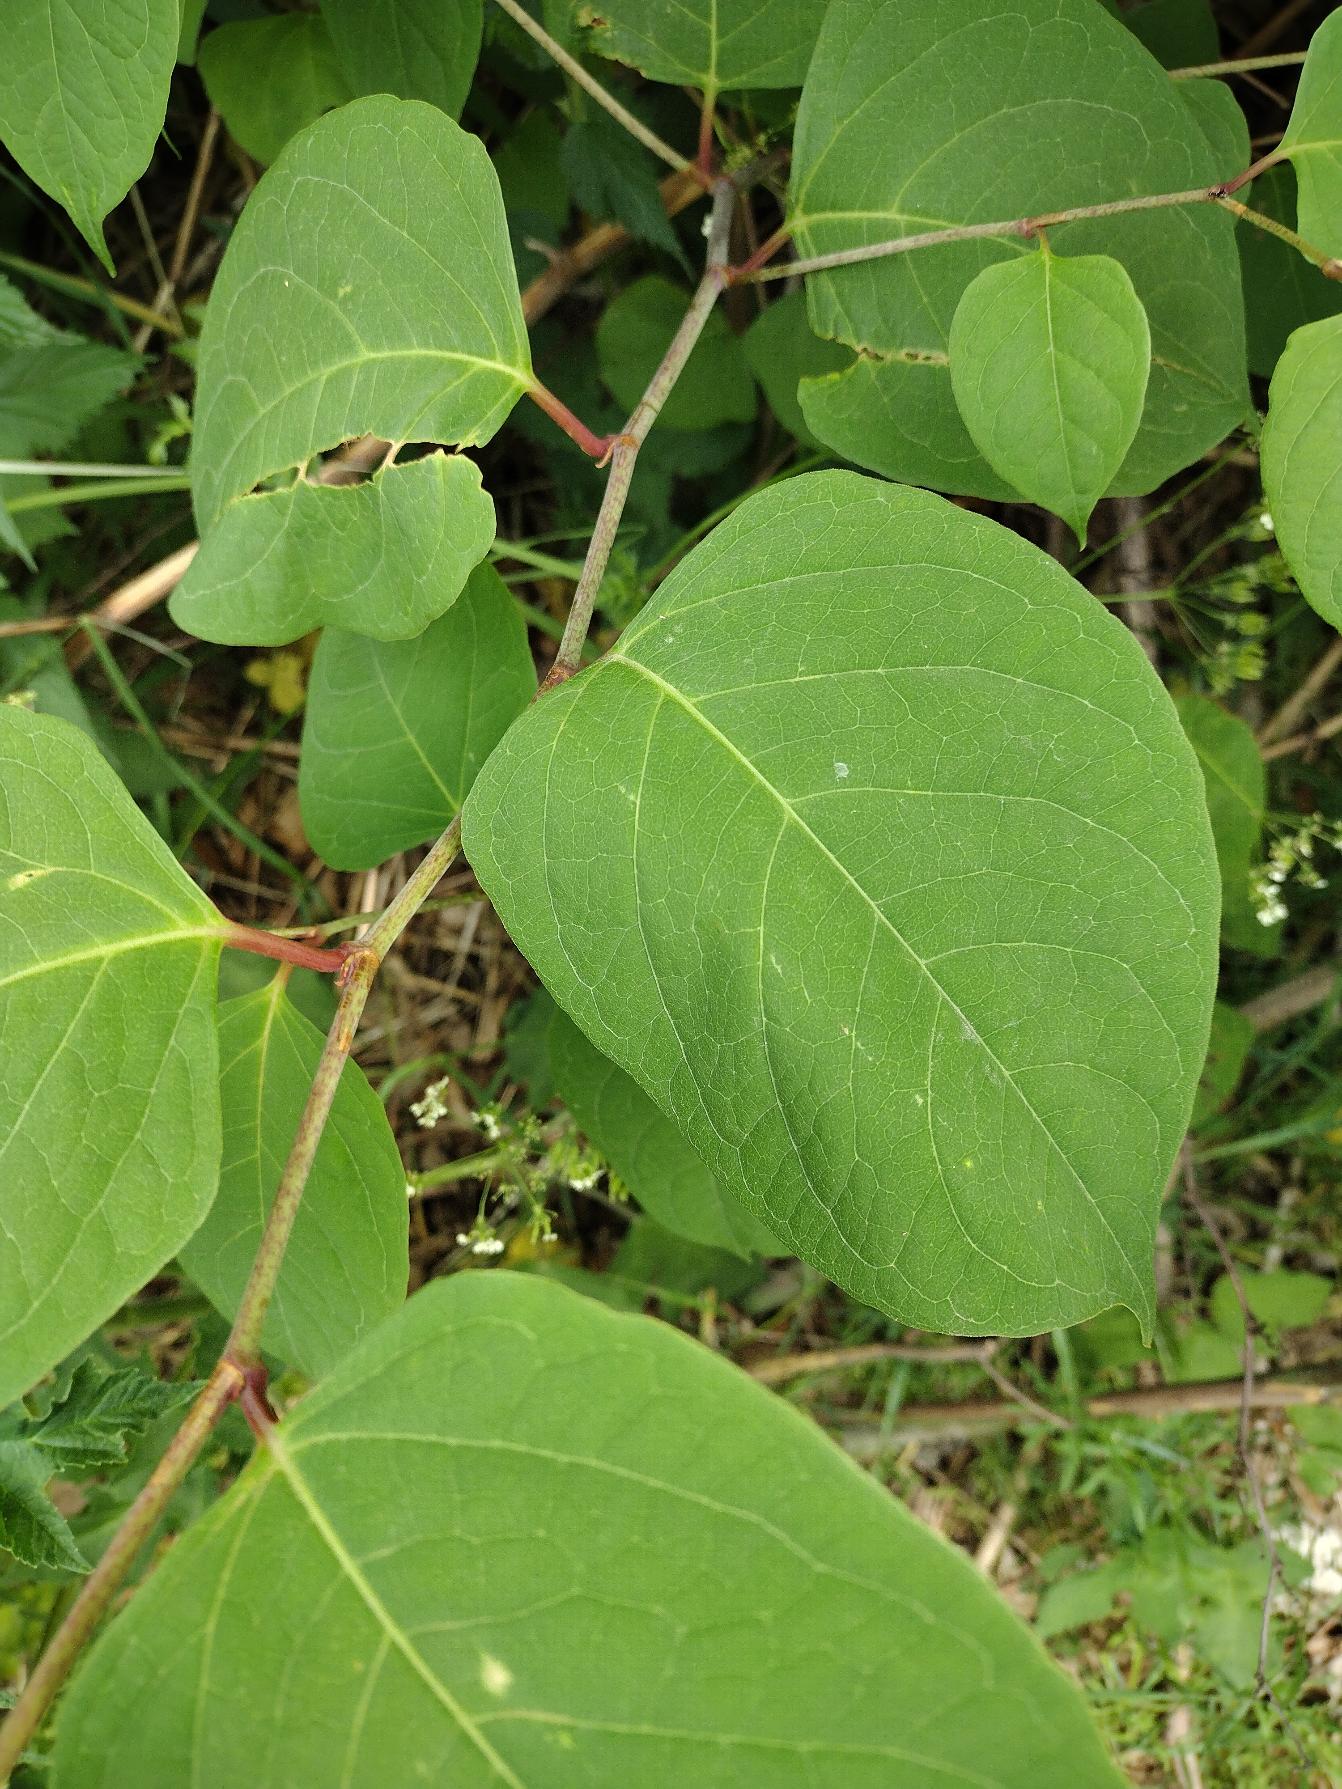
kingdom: Plantae
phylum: Tracheophyta
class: Magnoliopsida
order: Caryophyllales
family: Polygonaceae
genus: Reynoutria
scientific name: Reynoutria japonica
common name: Japan-pileurt
